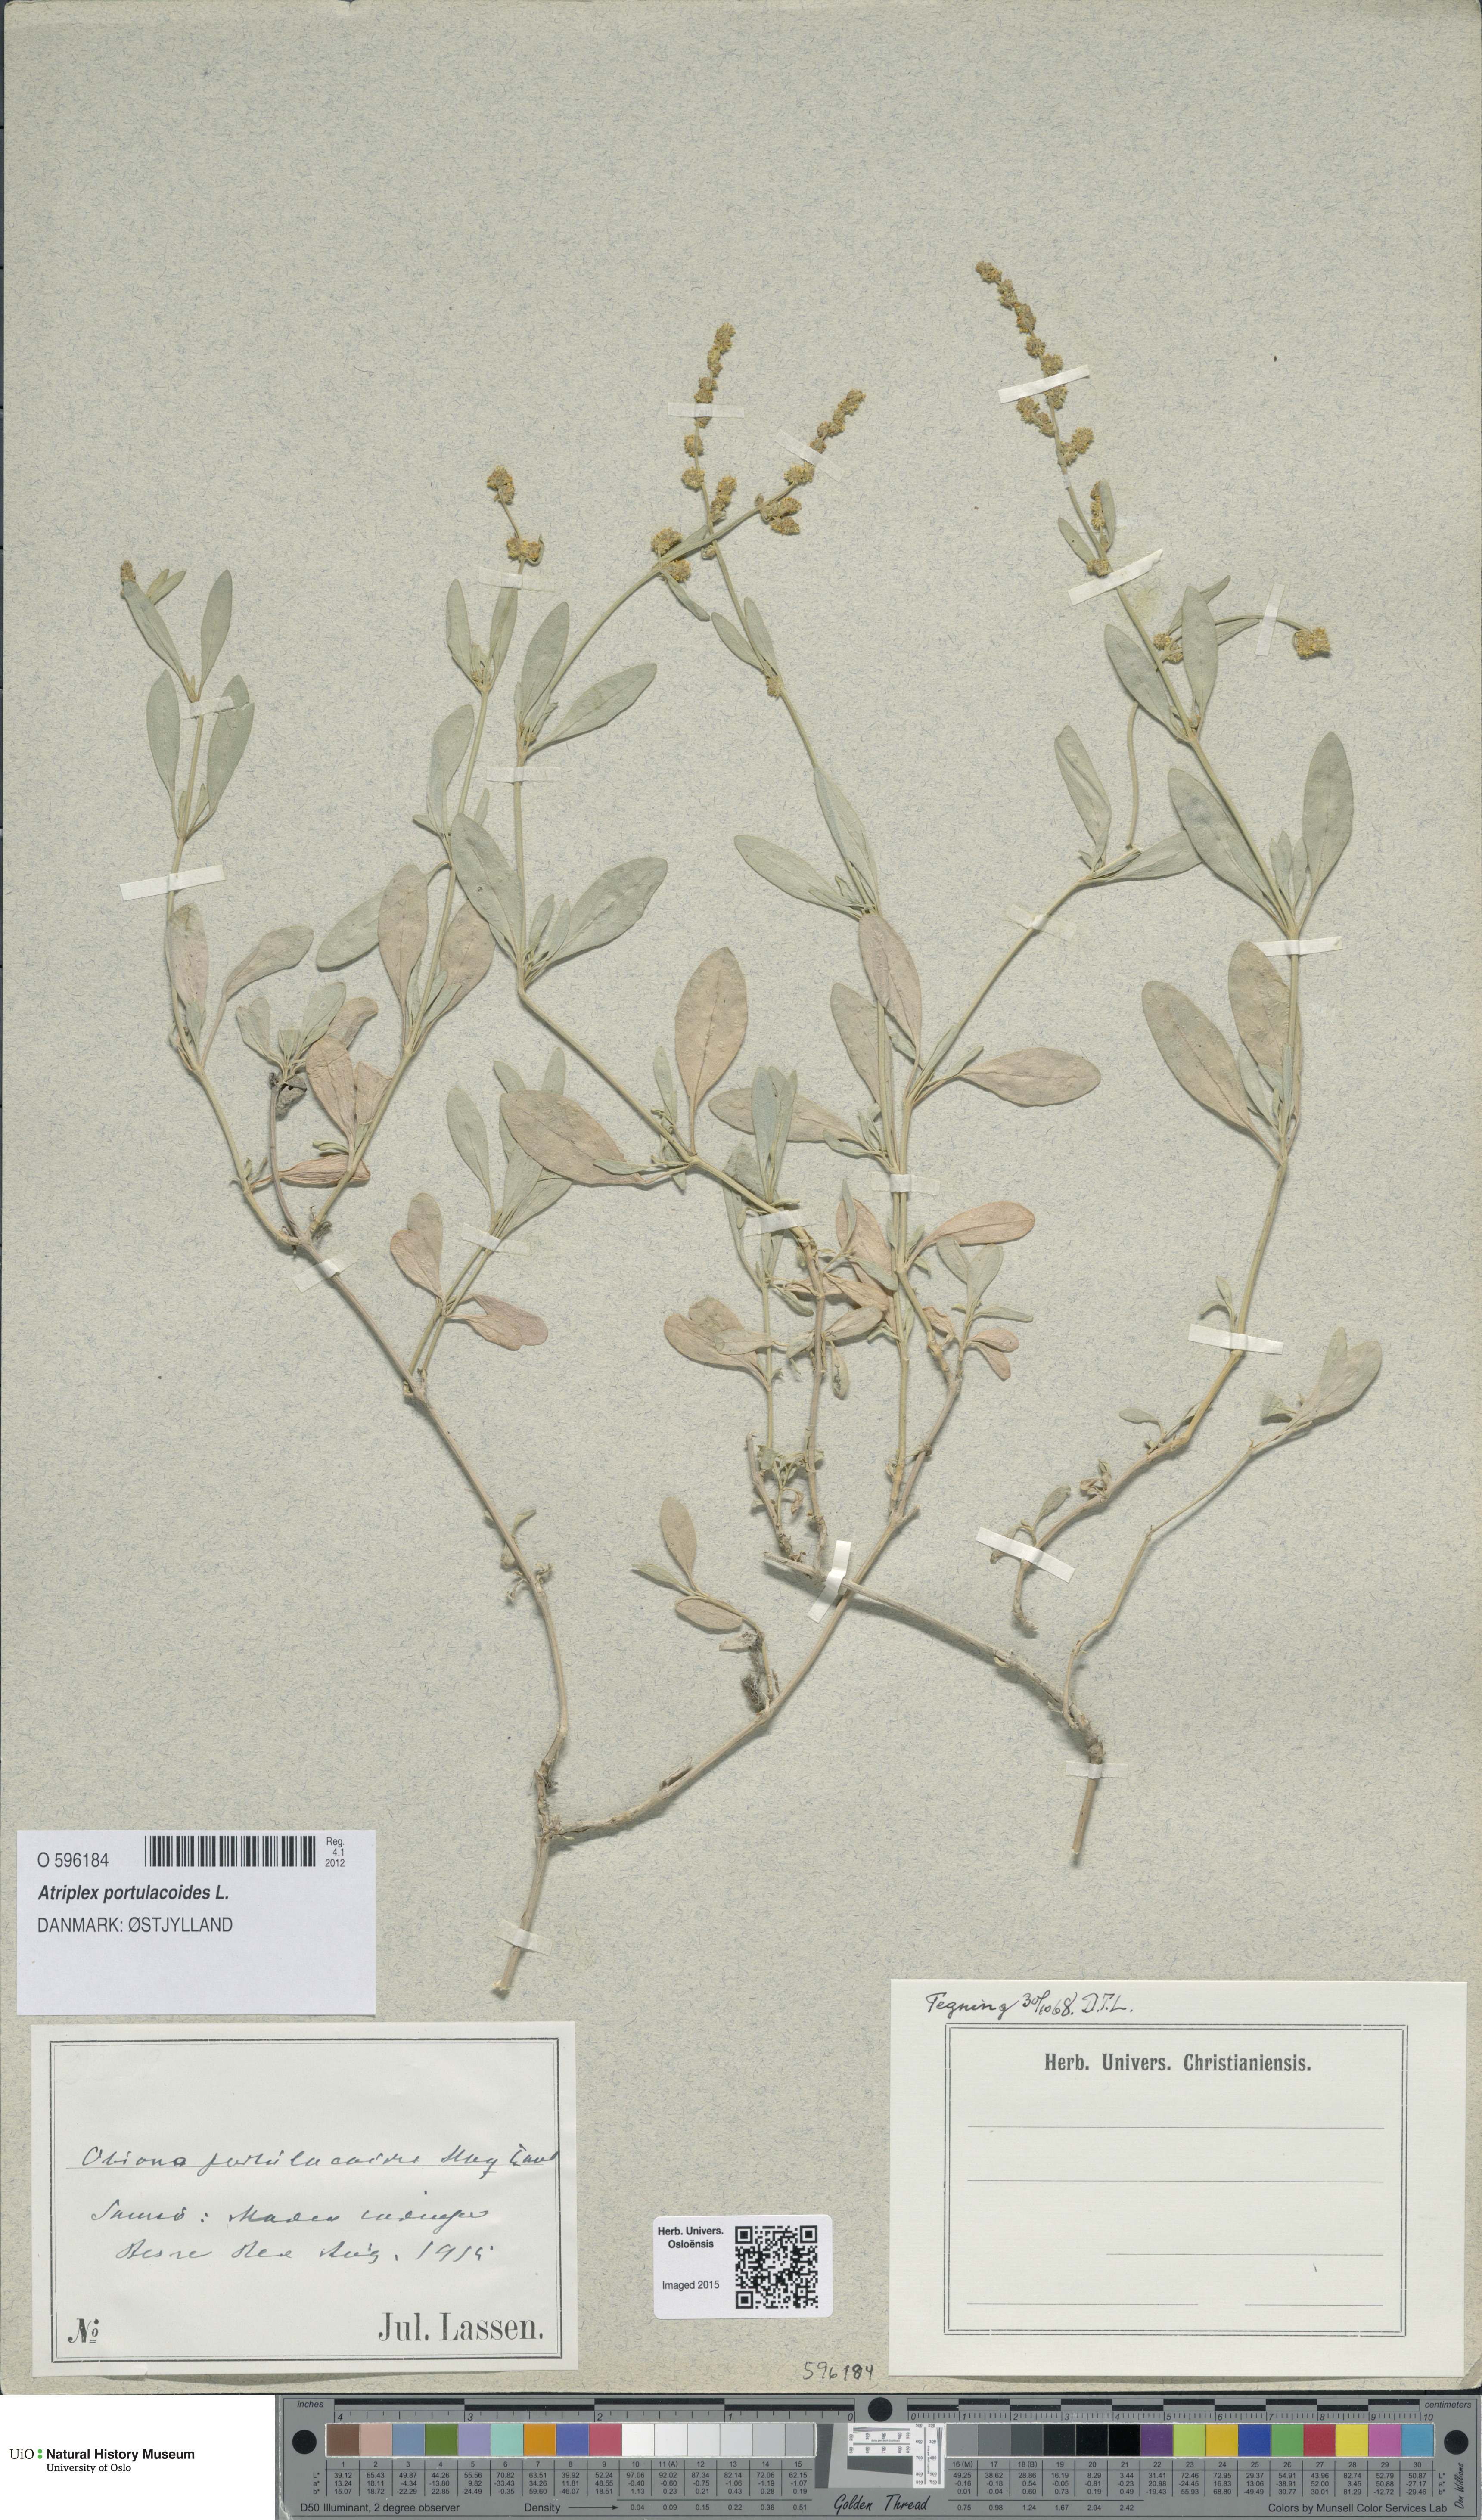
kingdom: Plantae
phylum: Tracheophyta
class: Magnoliopsida
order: Caryophyllales
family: Amaranthaceae
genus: Halimione
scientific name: Halimione portulacoides
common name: Sea-purslane
